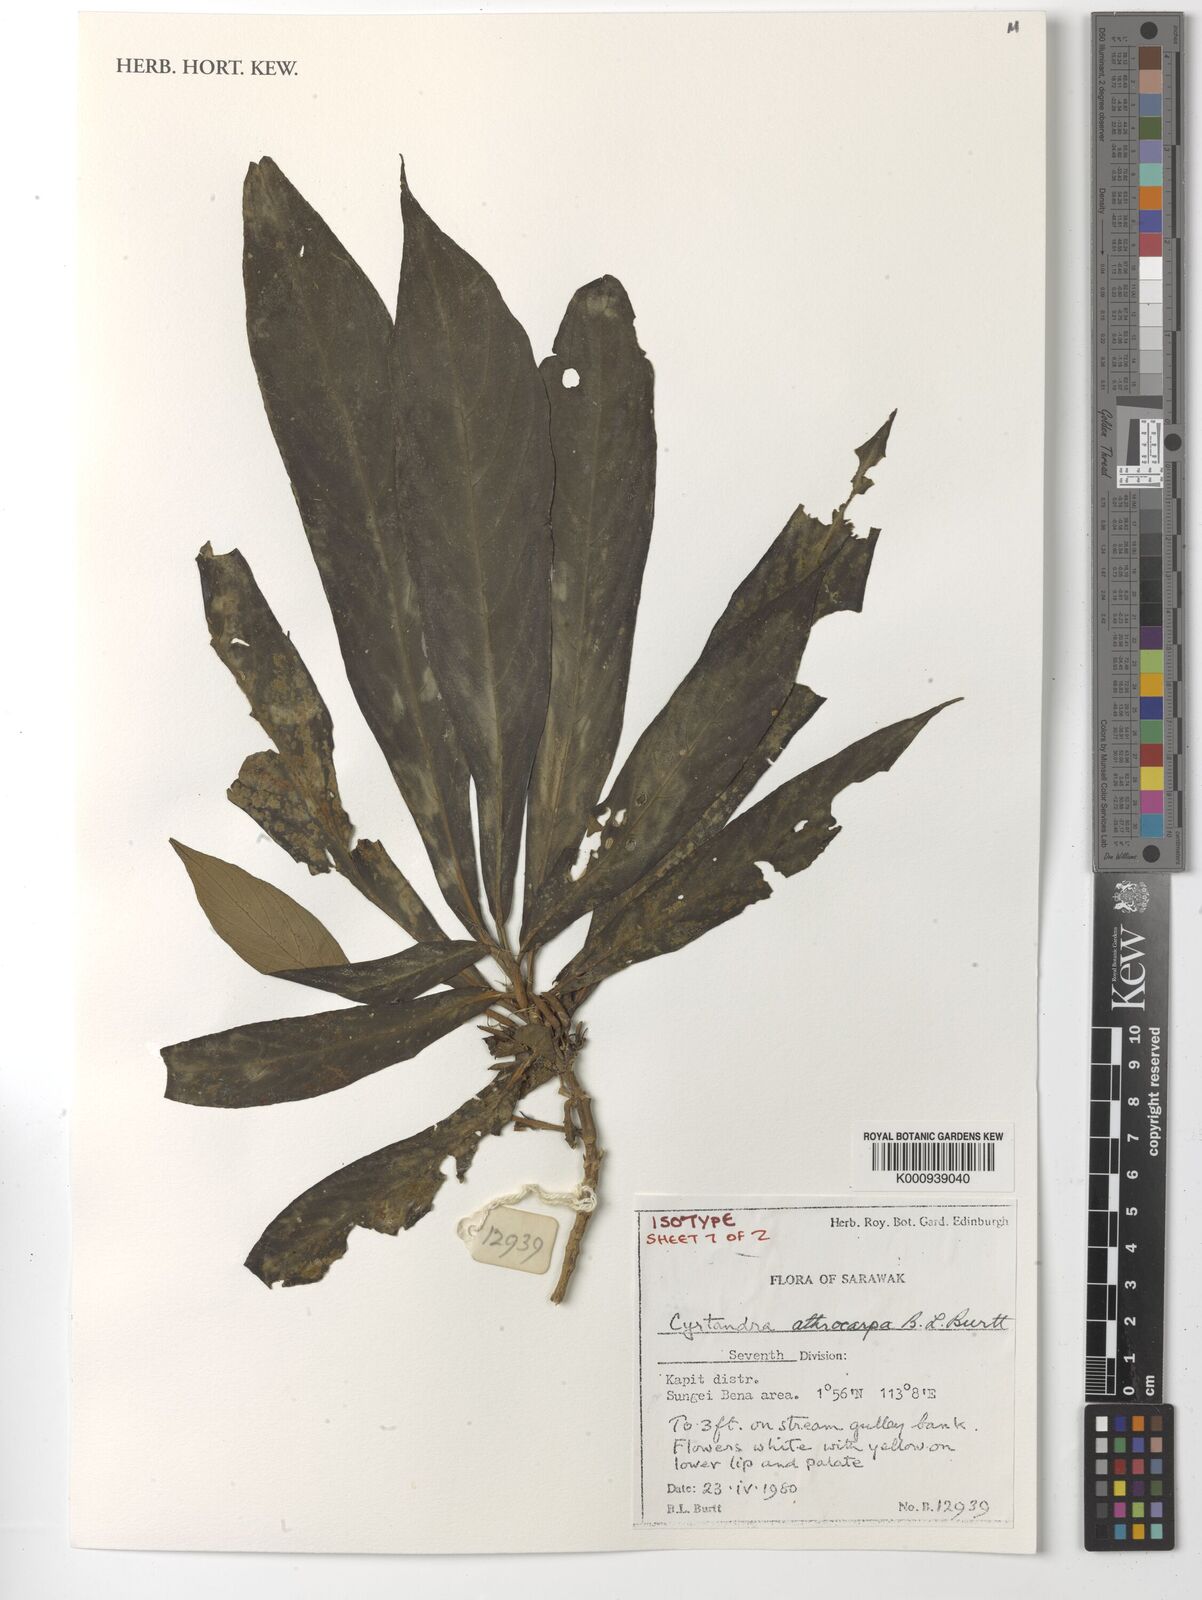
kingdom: Plantae
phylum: Tracheophyta
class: Magnoliopsida
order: Lamiales
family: Gesneriaceae
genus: Cyrtandra
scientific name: Cyrtandra athrocarpa
